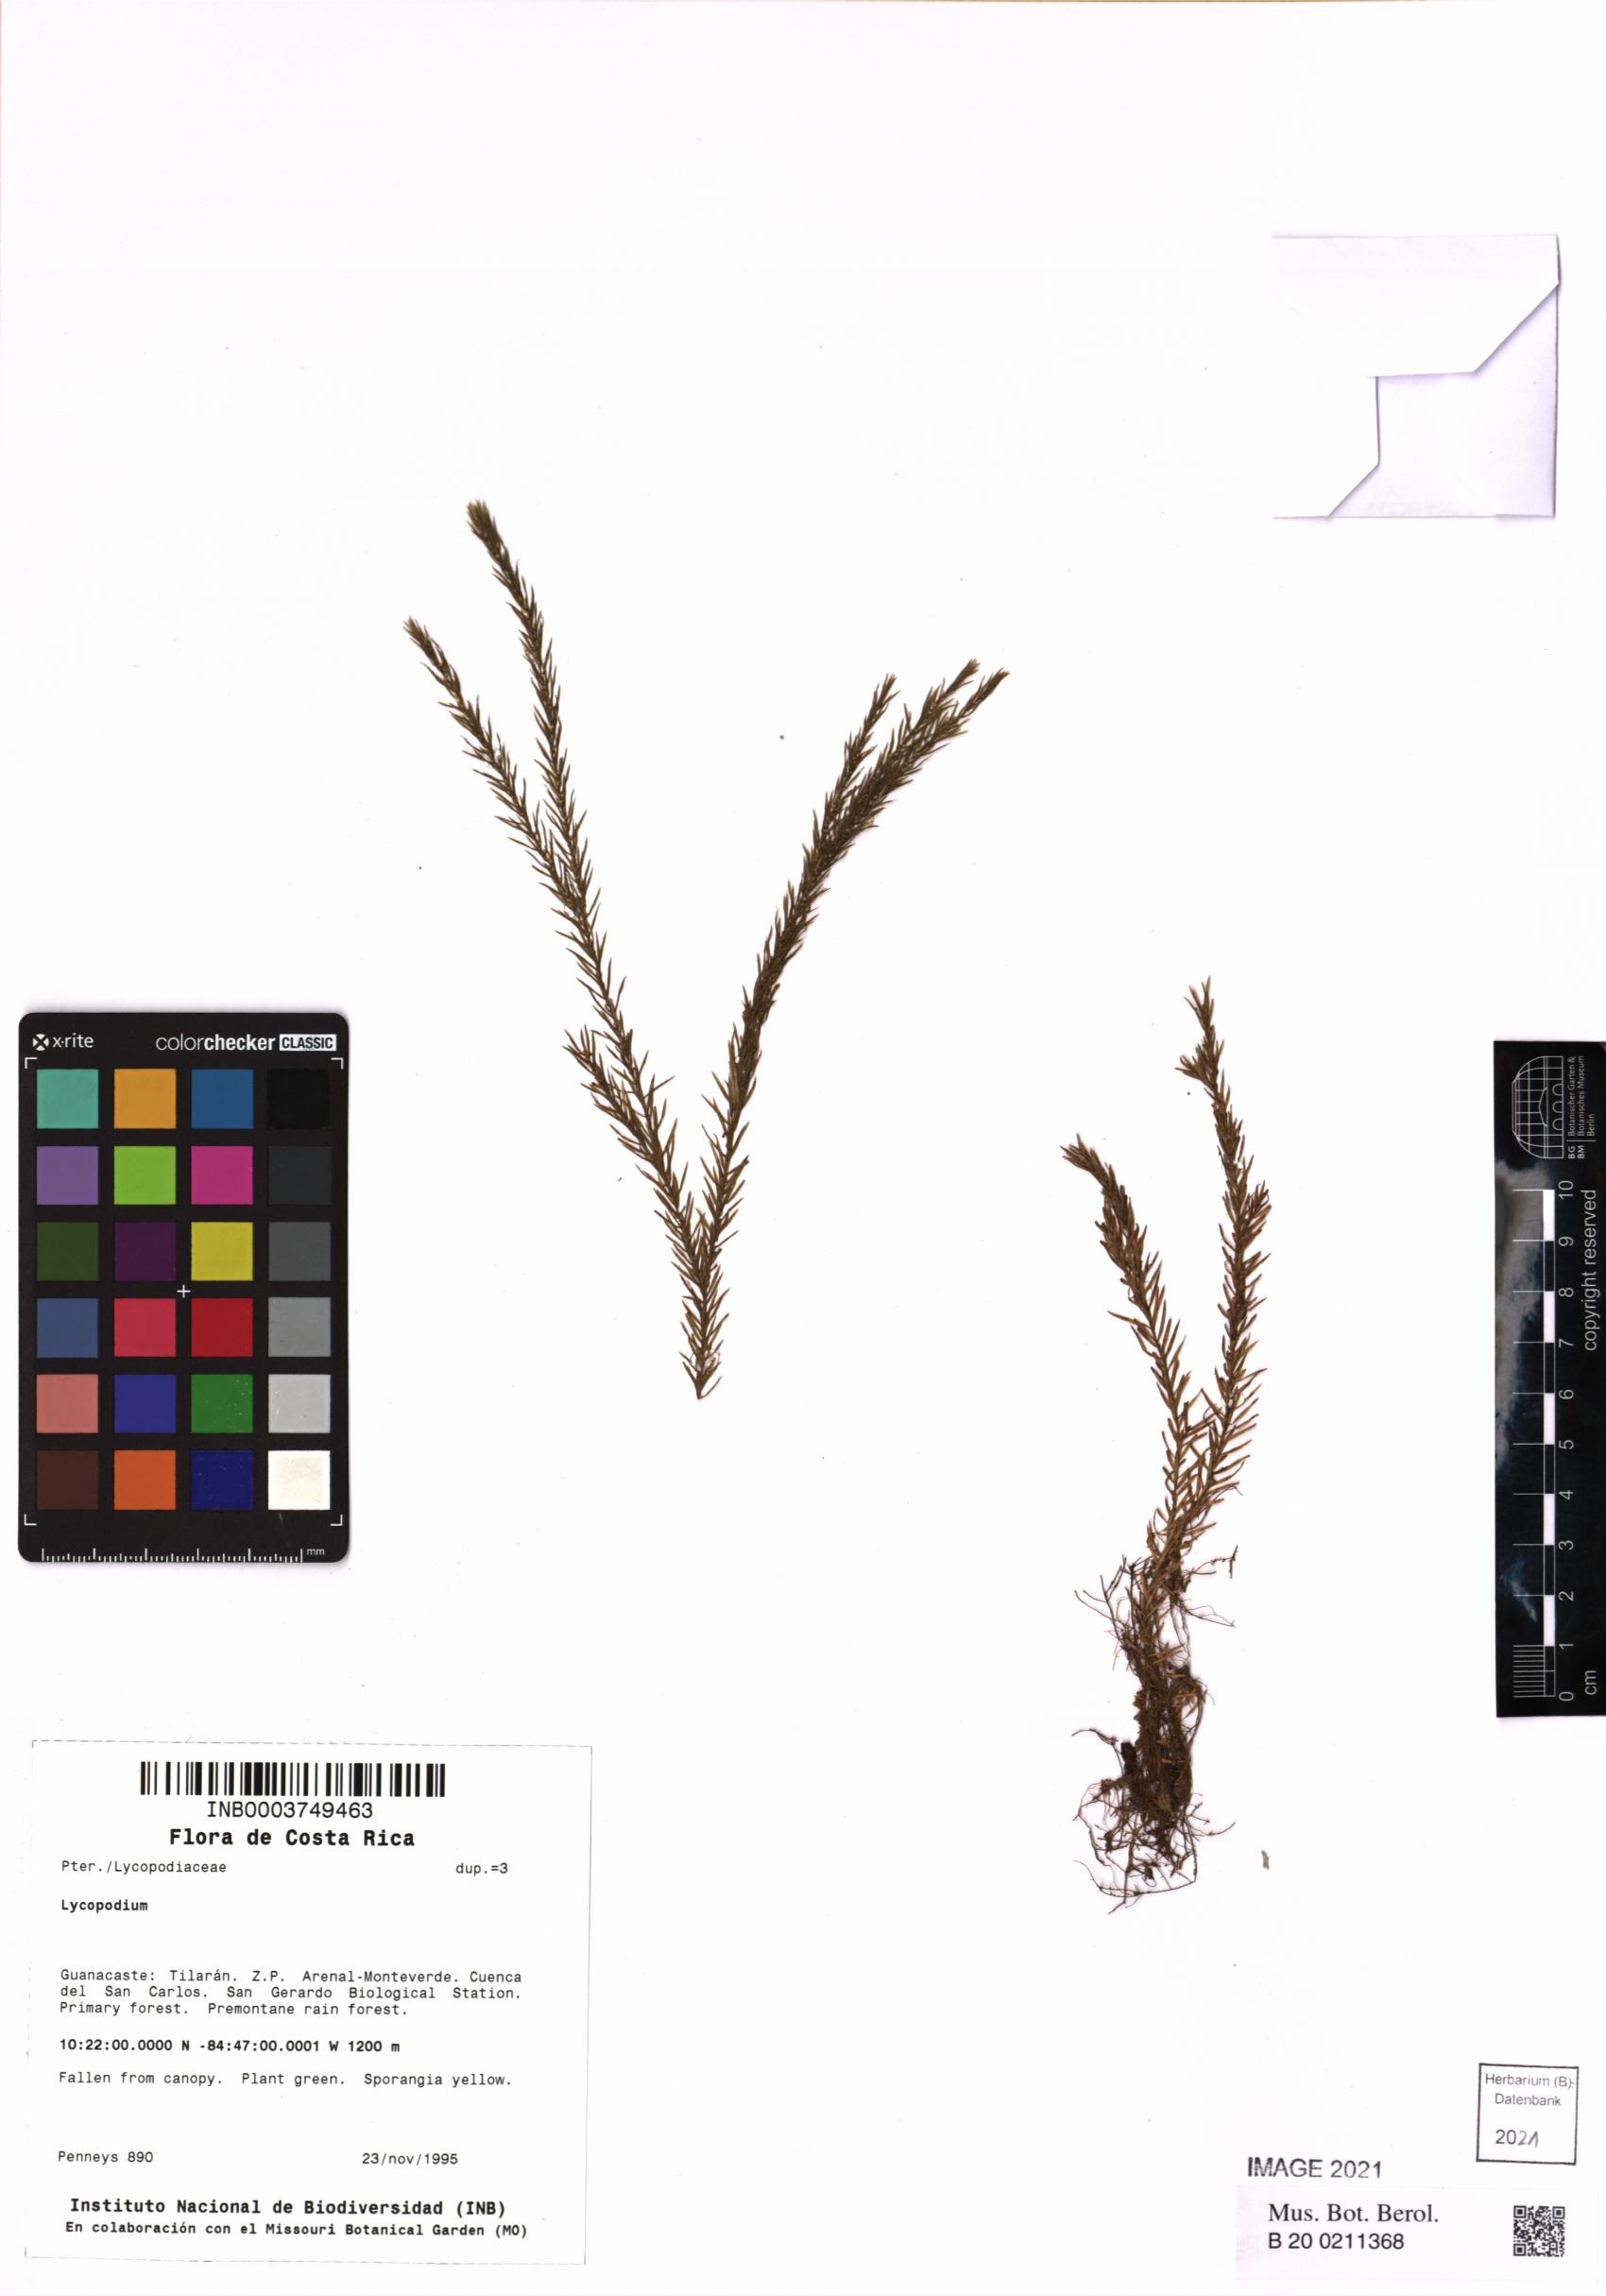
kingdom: Plantae
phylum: Tracheophyta
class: Lycopodiopsida
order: Lycopodiales
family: Lycopodiaceae
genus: Lycopodium
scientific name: Lycopodium
